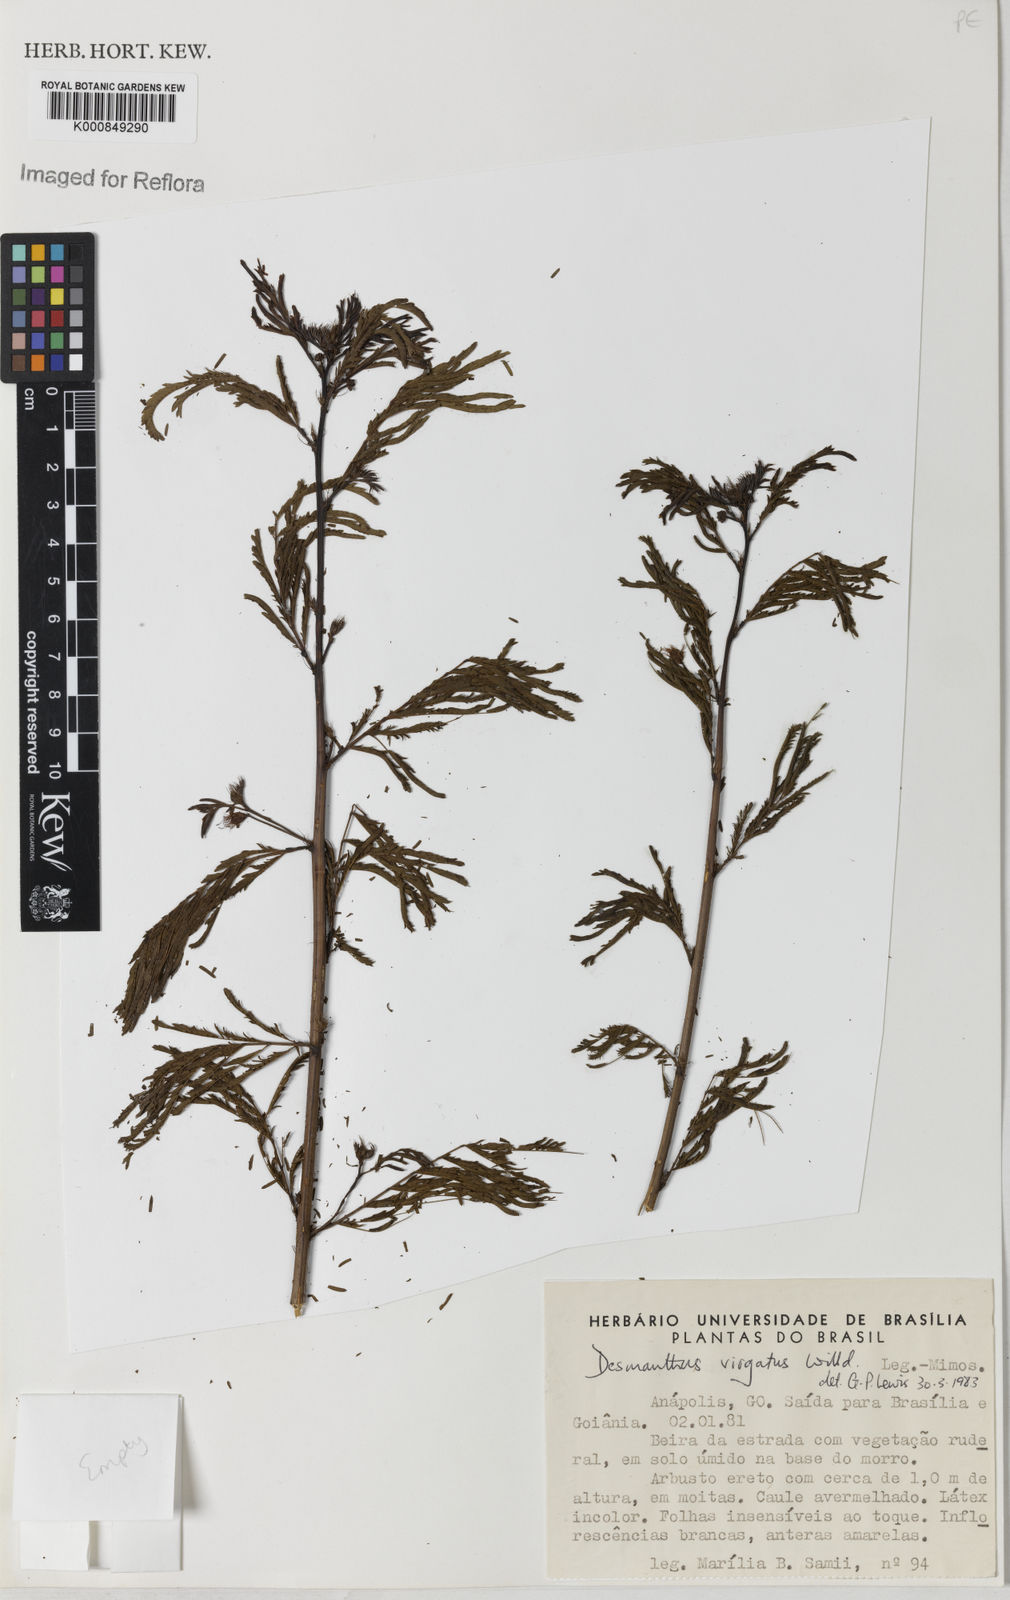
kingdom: Plantae
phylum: Tracheophyta
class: Magnoliopsida
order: Fabales
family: Fabaceae
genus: Desmanthus
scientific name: Desmanthus virgatus
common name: Wild tantan
